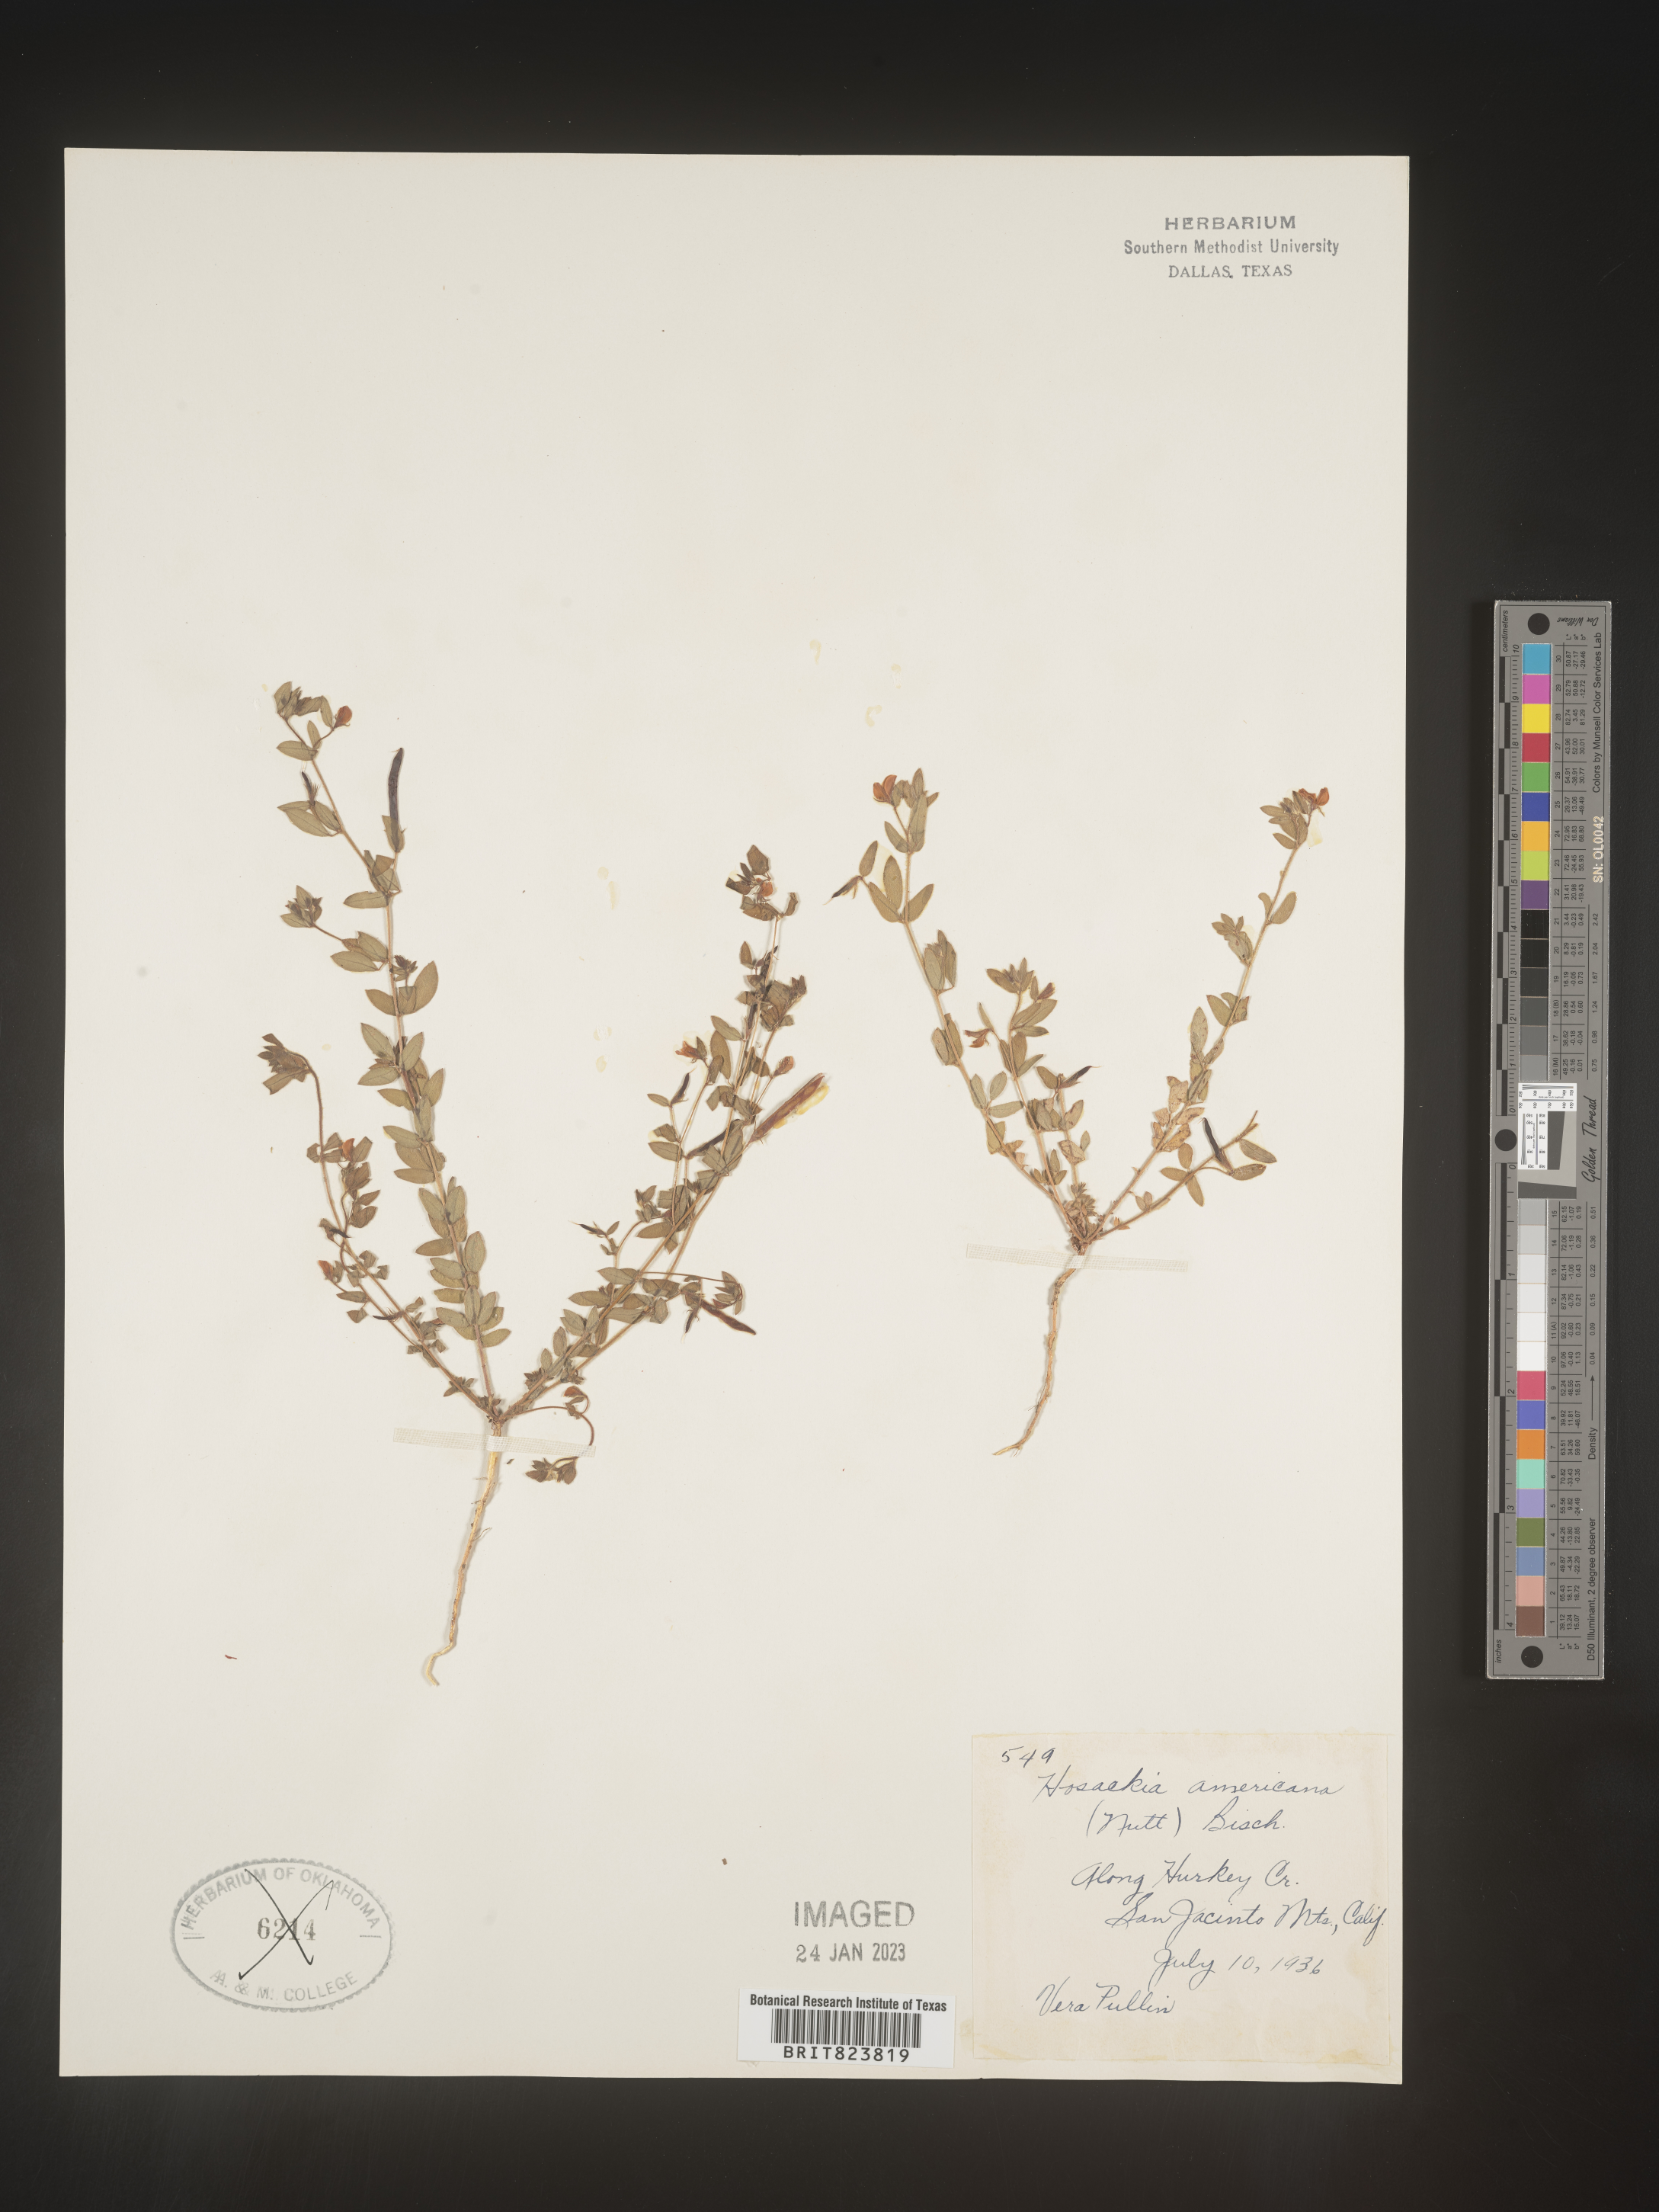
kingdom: Plantae
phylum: Tracheophyta
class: Magnoliopsida
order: Fabales
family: Fabaceae
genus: Acmispon
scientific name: Acmispon americanus
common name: American bird's-foot trefoil
